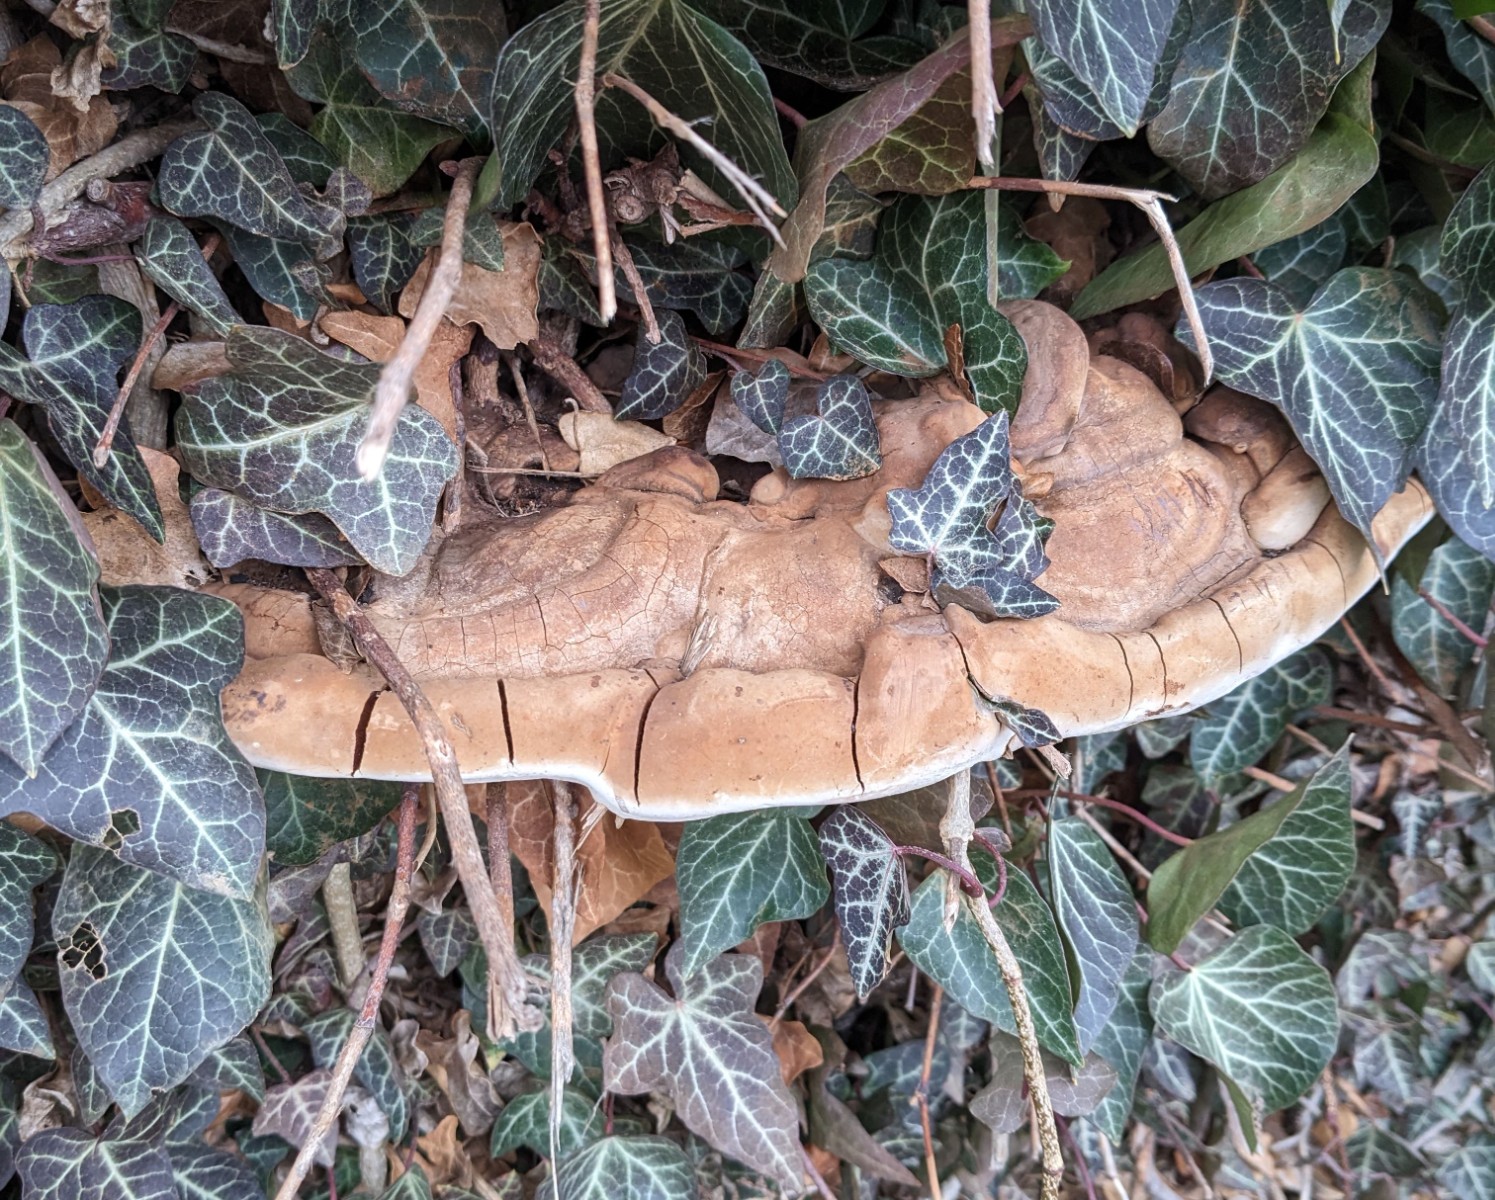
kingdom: Fungi
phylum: Basidiomycota
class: Agaricomycetes
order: Polyporales
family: Polyporaceae
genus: Ganoderma
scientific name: Ganoderma adspersum
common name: grov lakporesvamp
